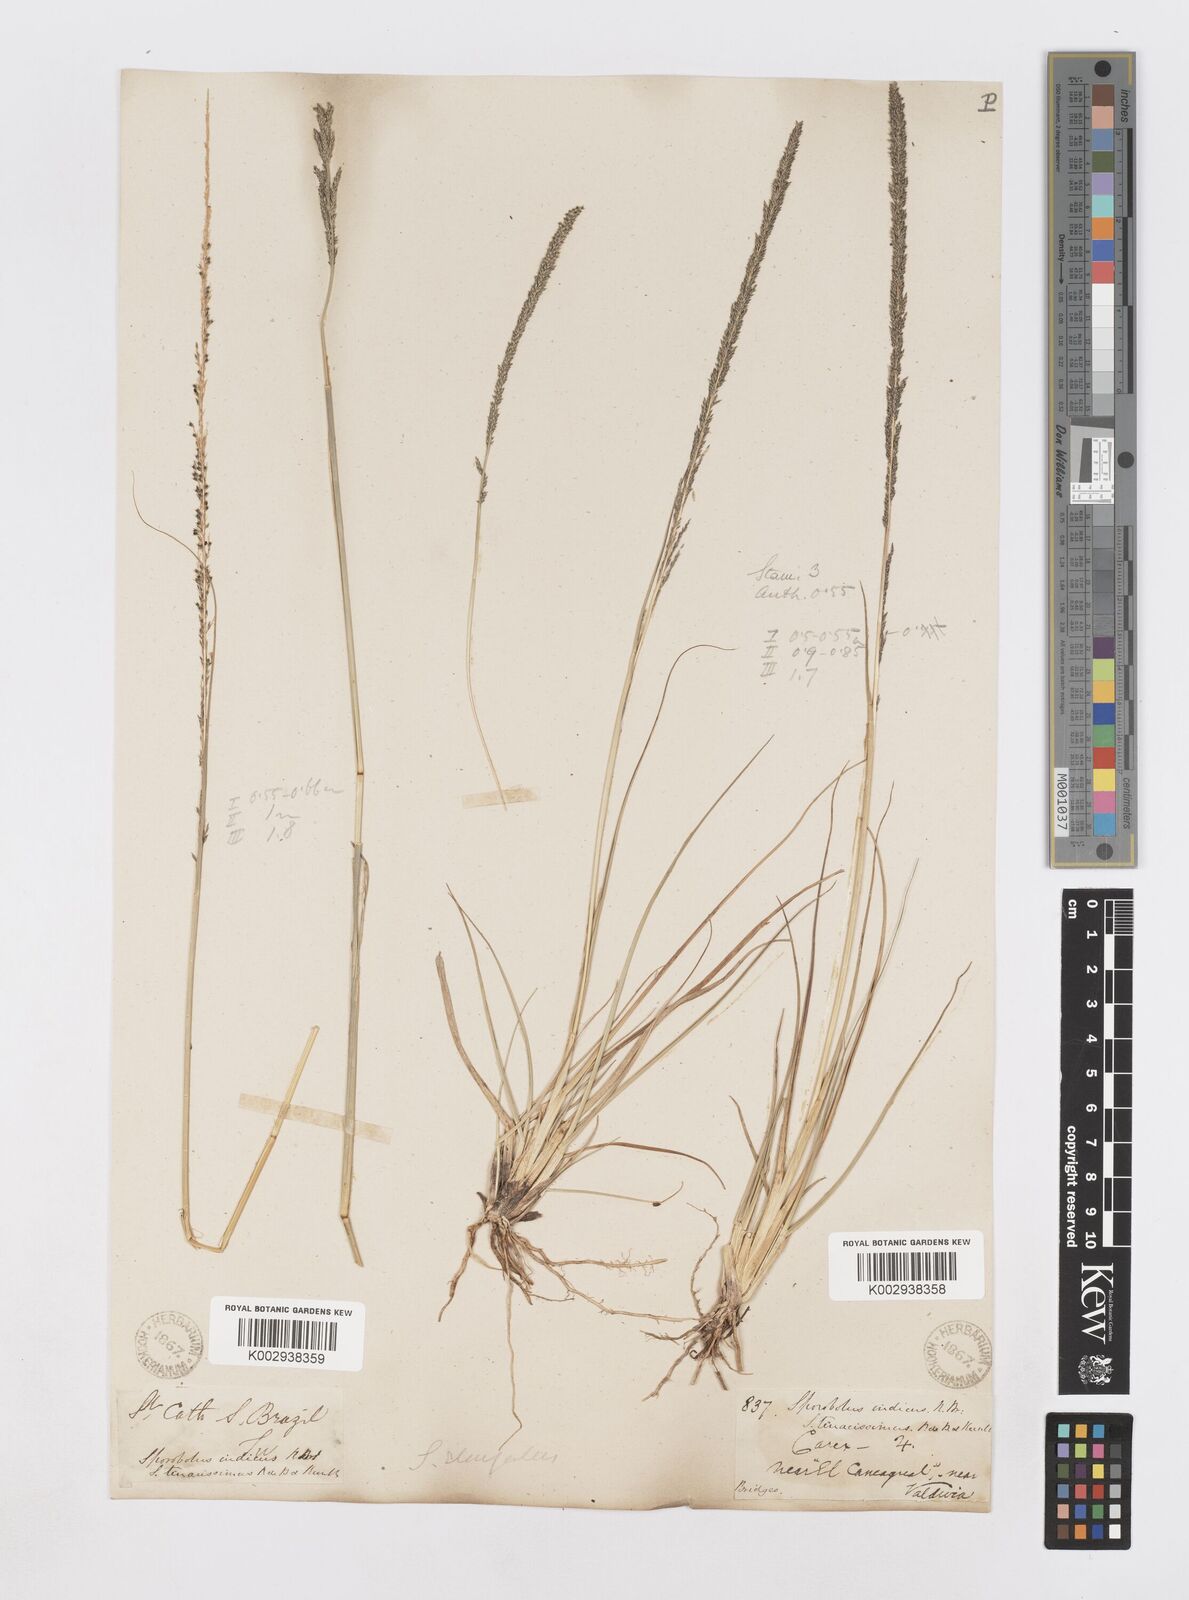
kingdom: Plantae
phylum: Tracheophyta
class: Liliopsida
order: Poales
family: Poaceae
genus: Sporobolus
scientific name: Sporobolus pyramidalis
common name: West indian dropseed
